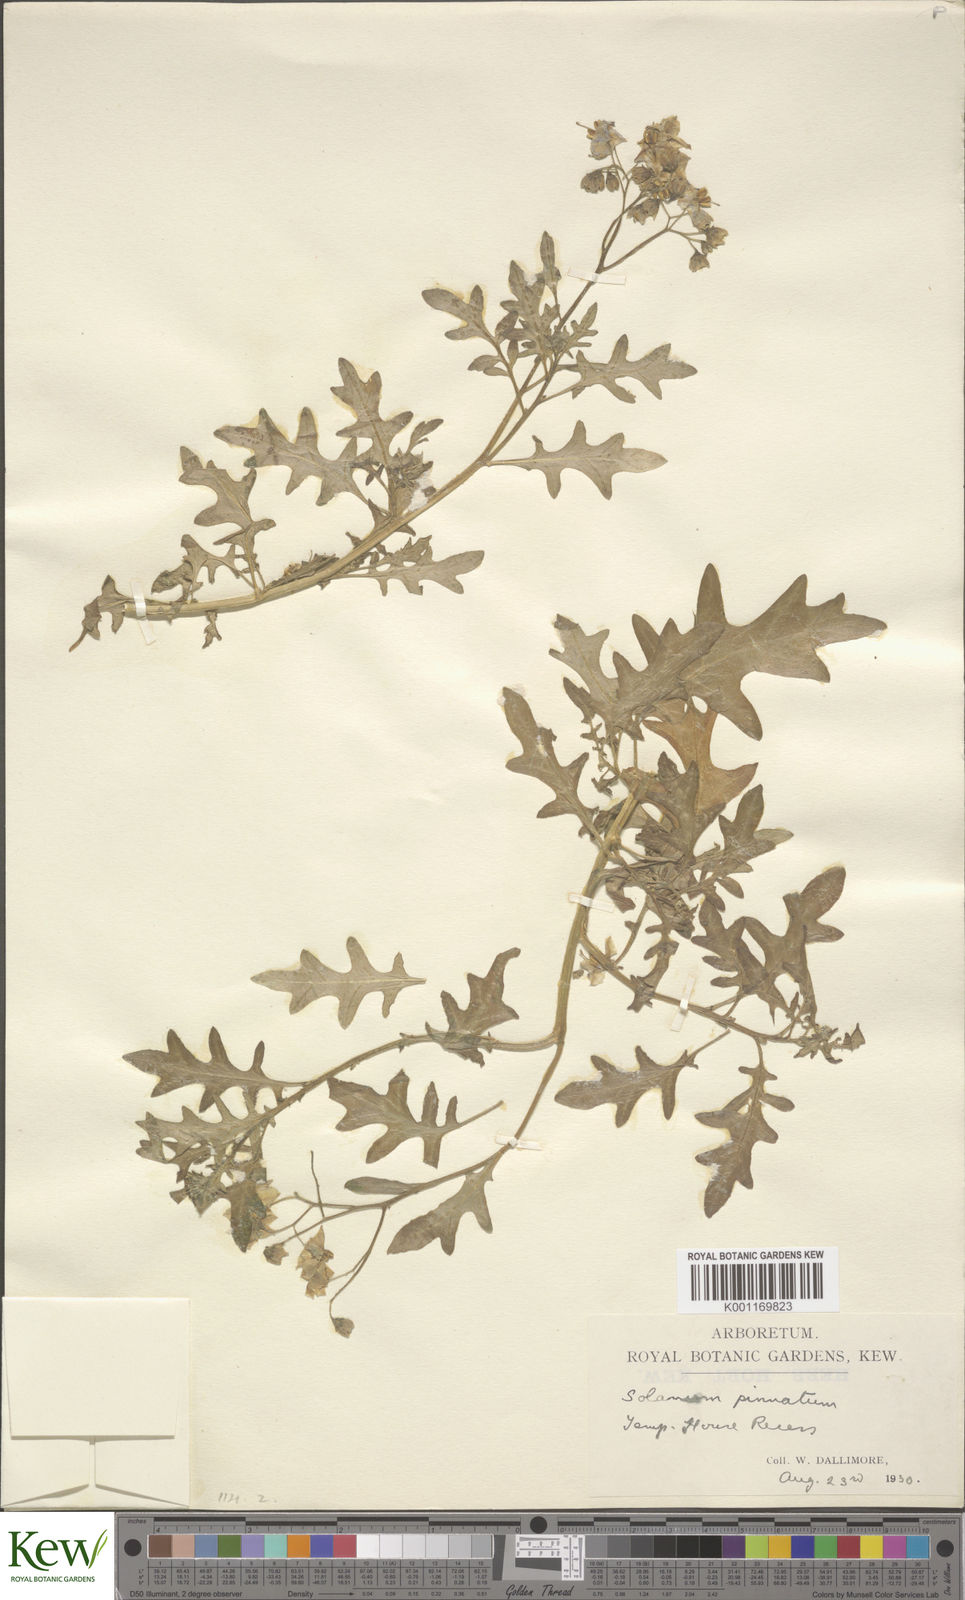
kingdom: Plantae
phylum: Tracheophyta
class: Magnoliopsida
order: Solanales
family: Solanaceae
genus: Solanum
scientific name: Solanum pinnatum
